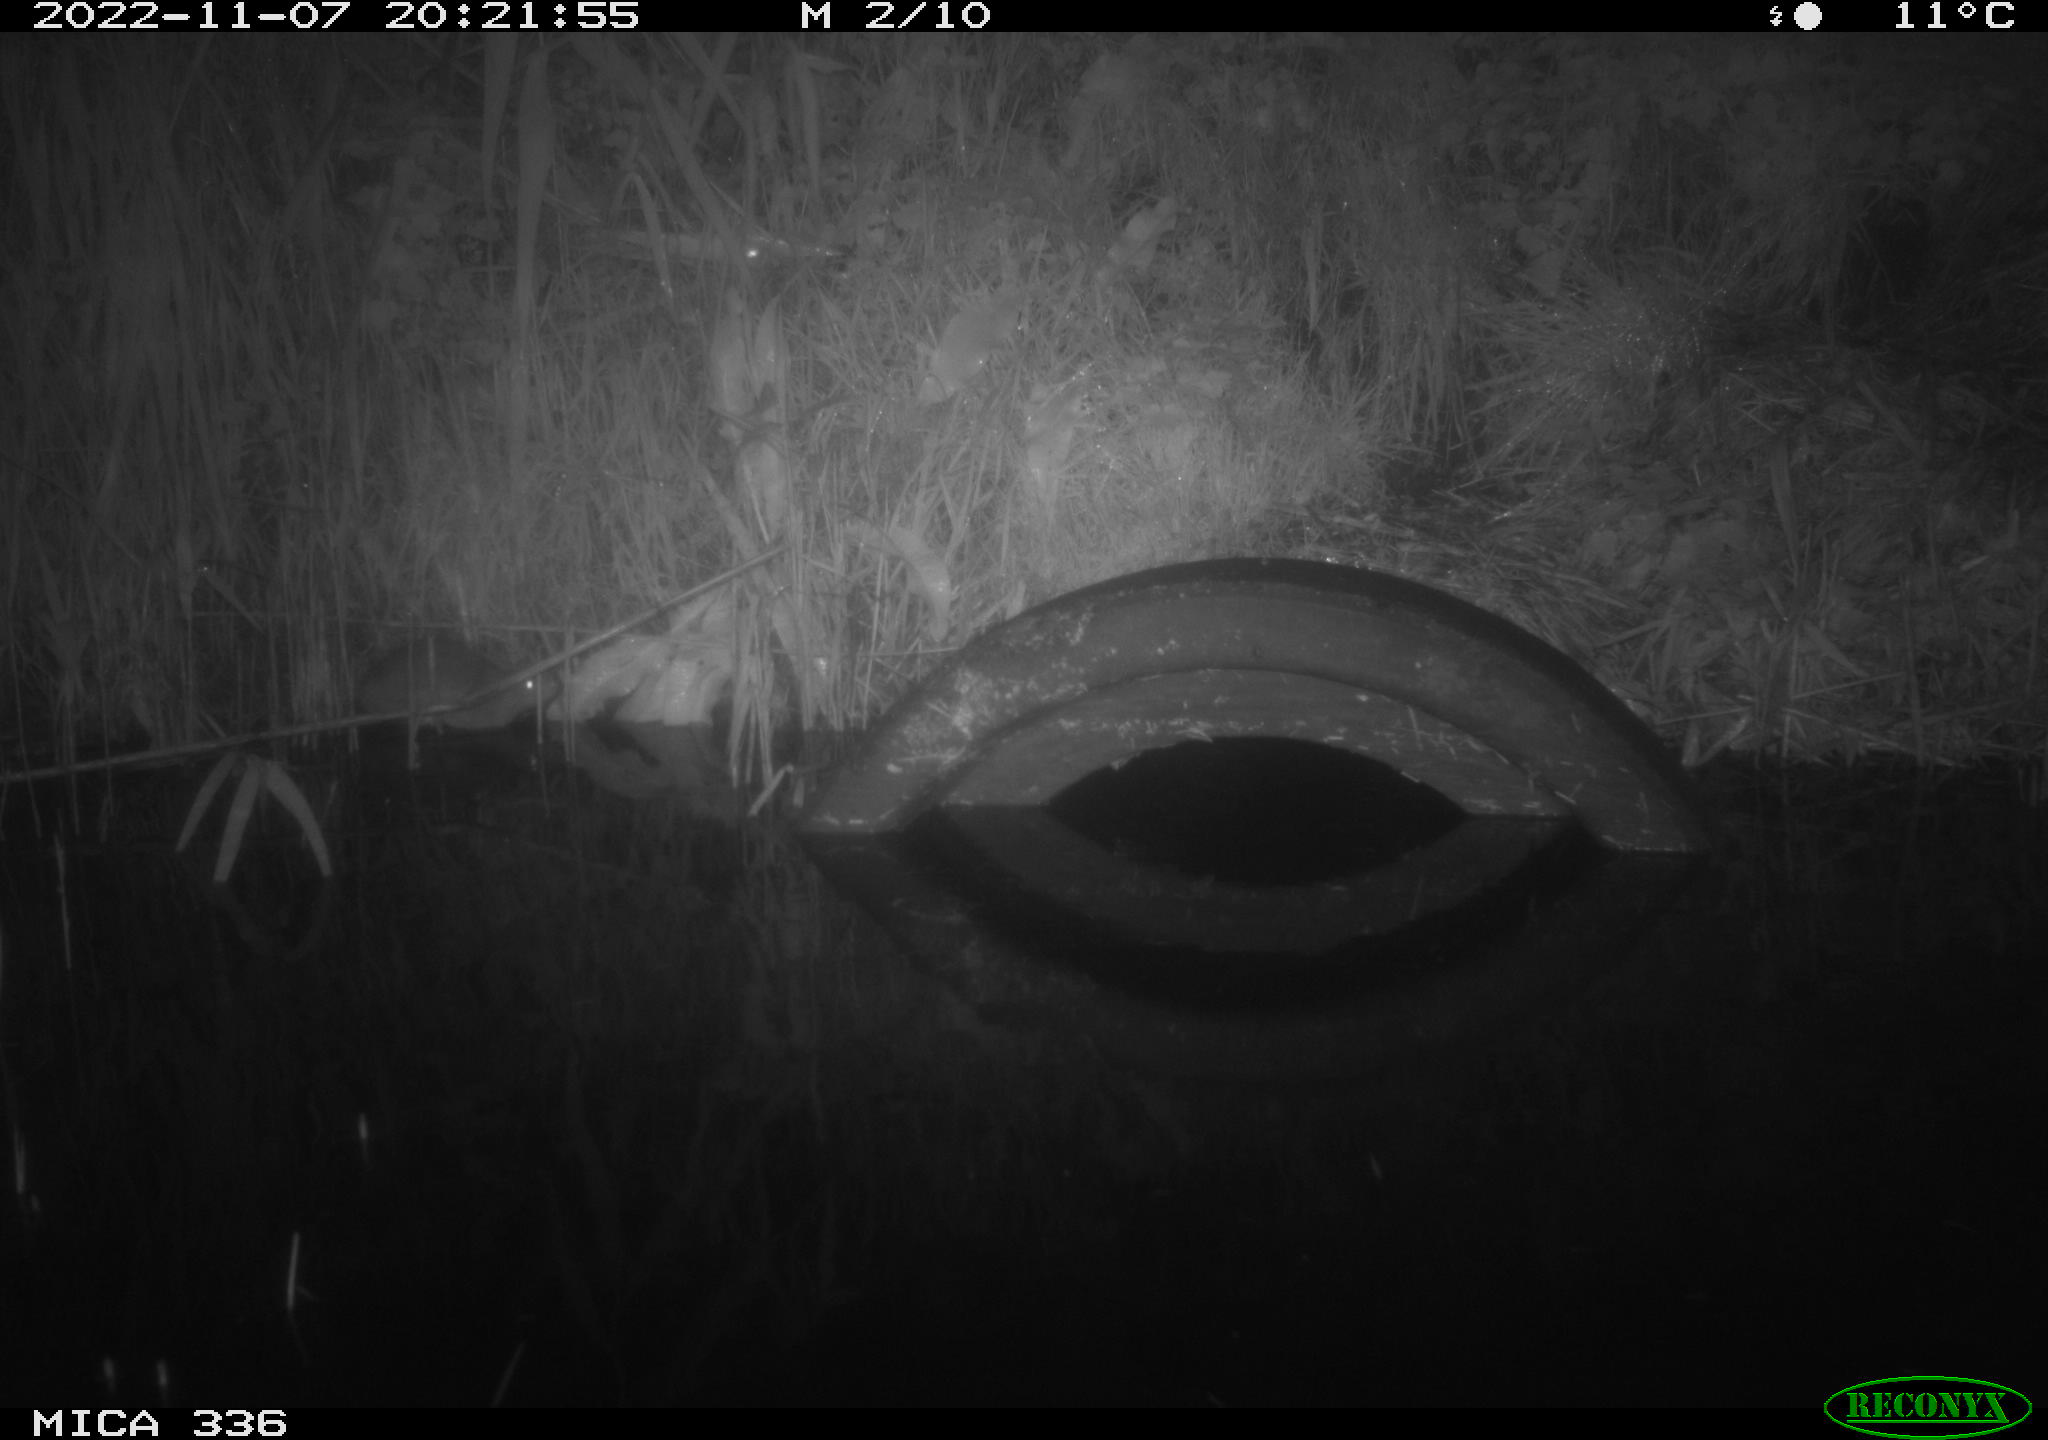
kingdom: Animalia
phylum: Chordata
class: Mammalia
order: Rodentia
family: Muridae
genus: Rattus
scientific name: Rattus norvegicus
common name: Brown rat
